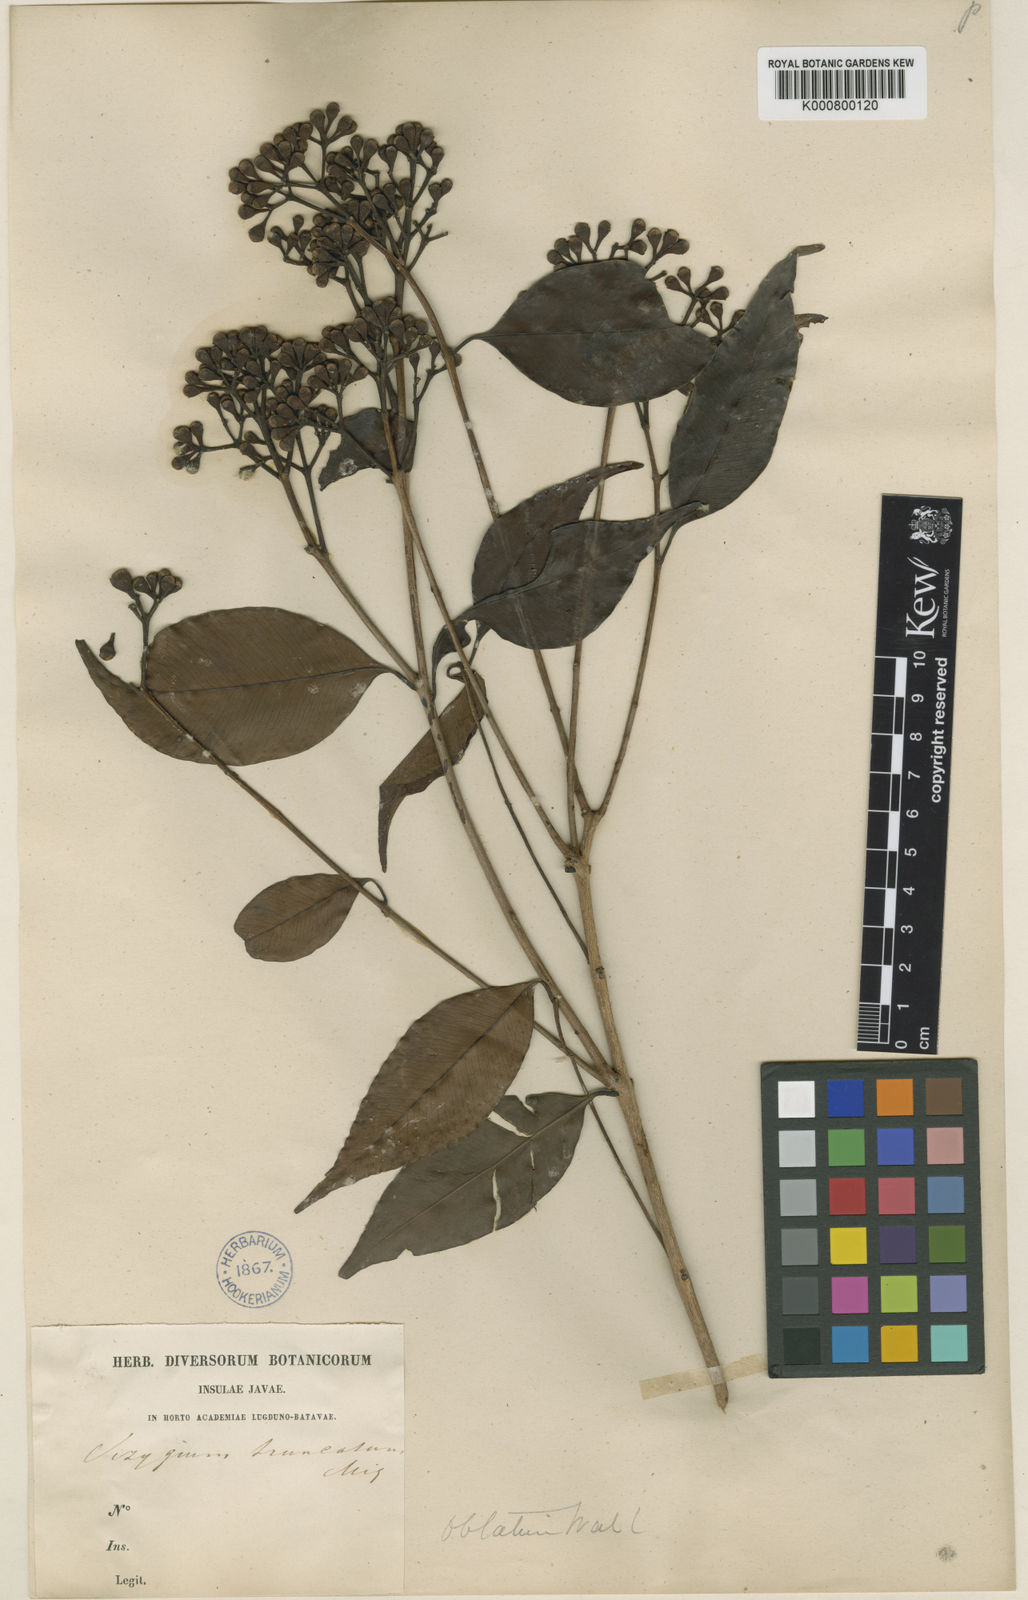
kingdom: Plantae
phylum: Tracheophyta
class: Magnoliopsida
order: Myrtales
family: Myrtaceae
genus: Syzygium
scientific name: Syzygium pyrifolium
